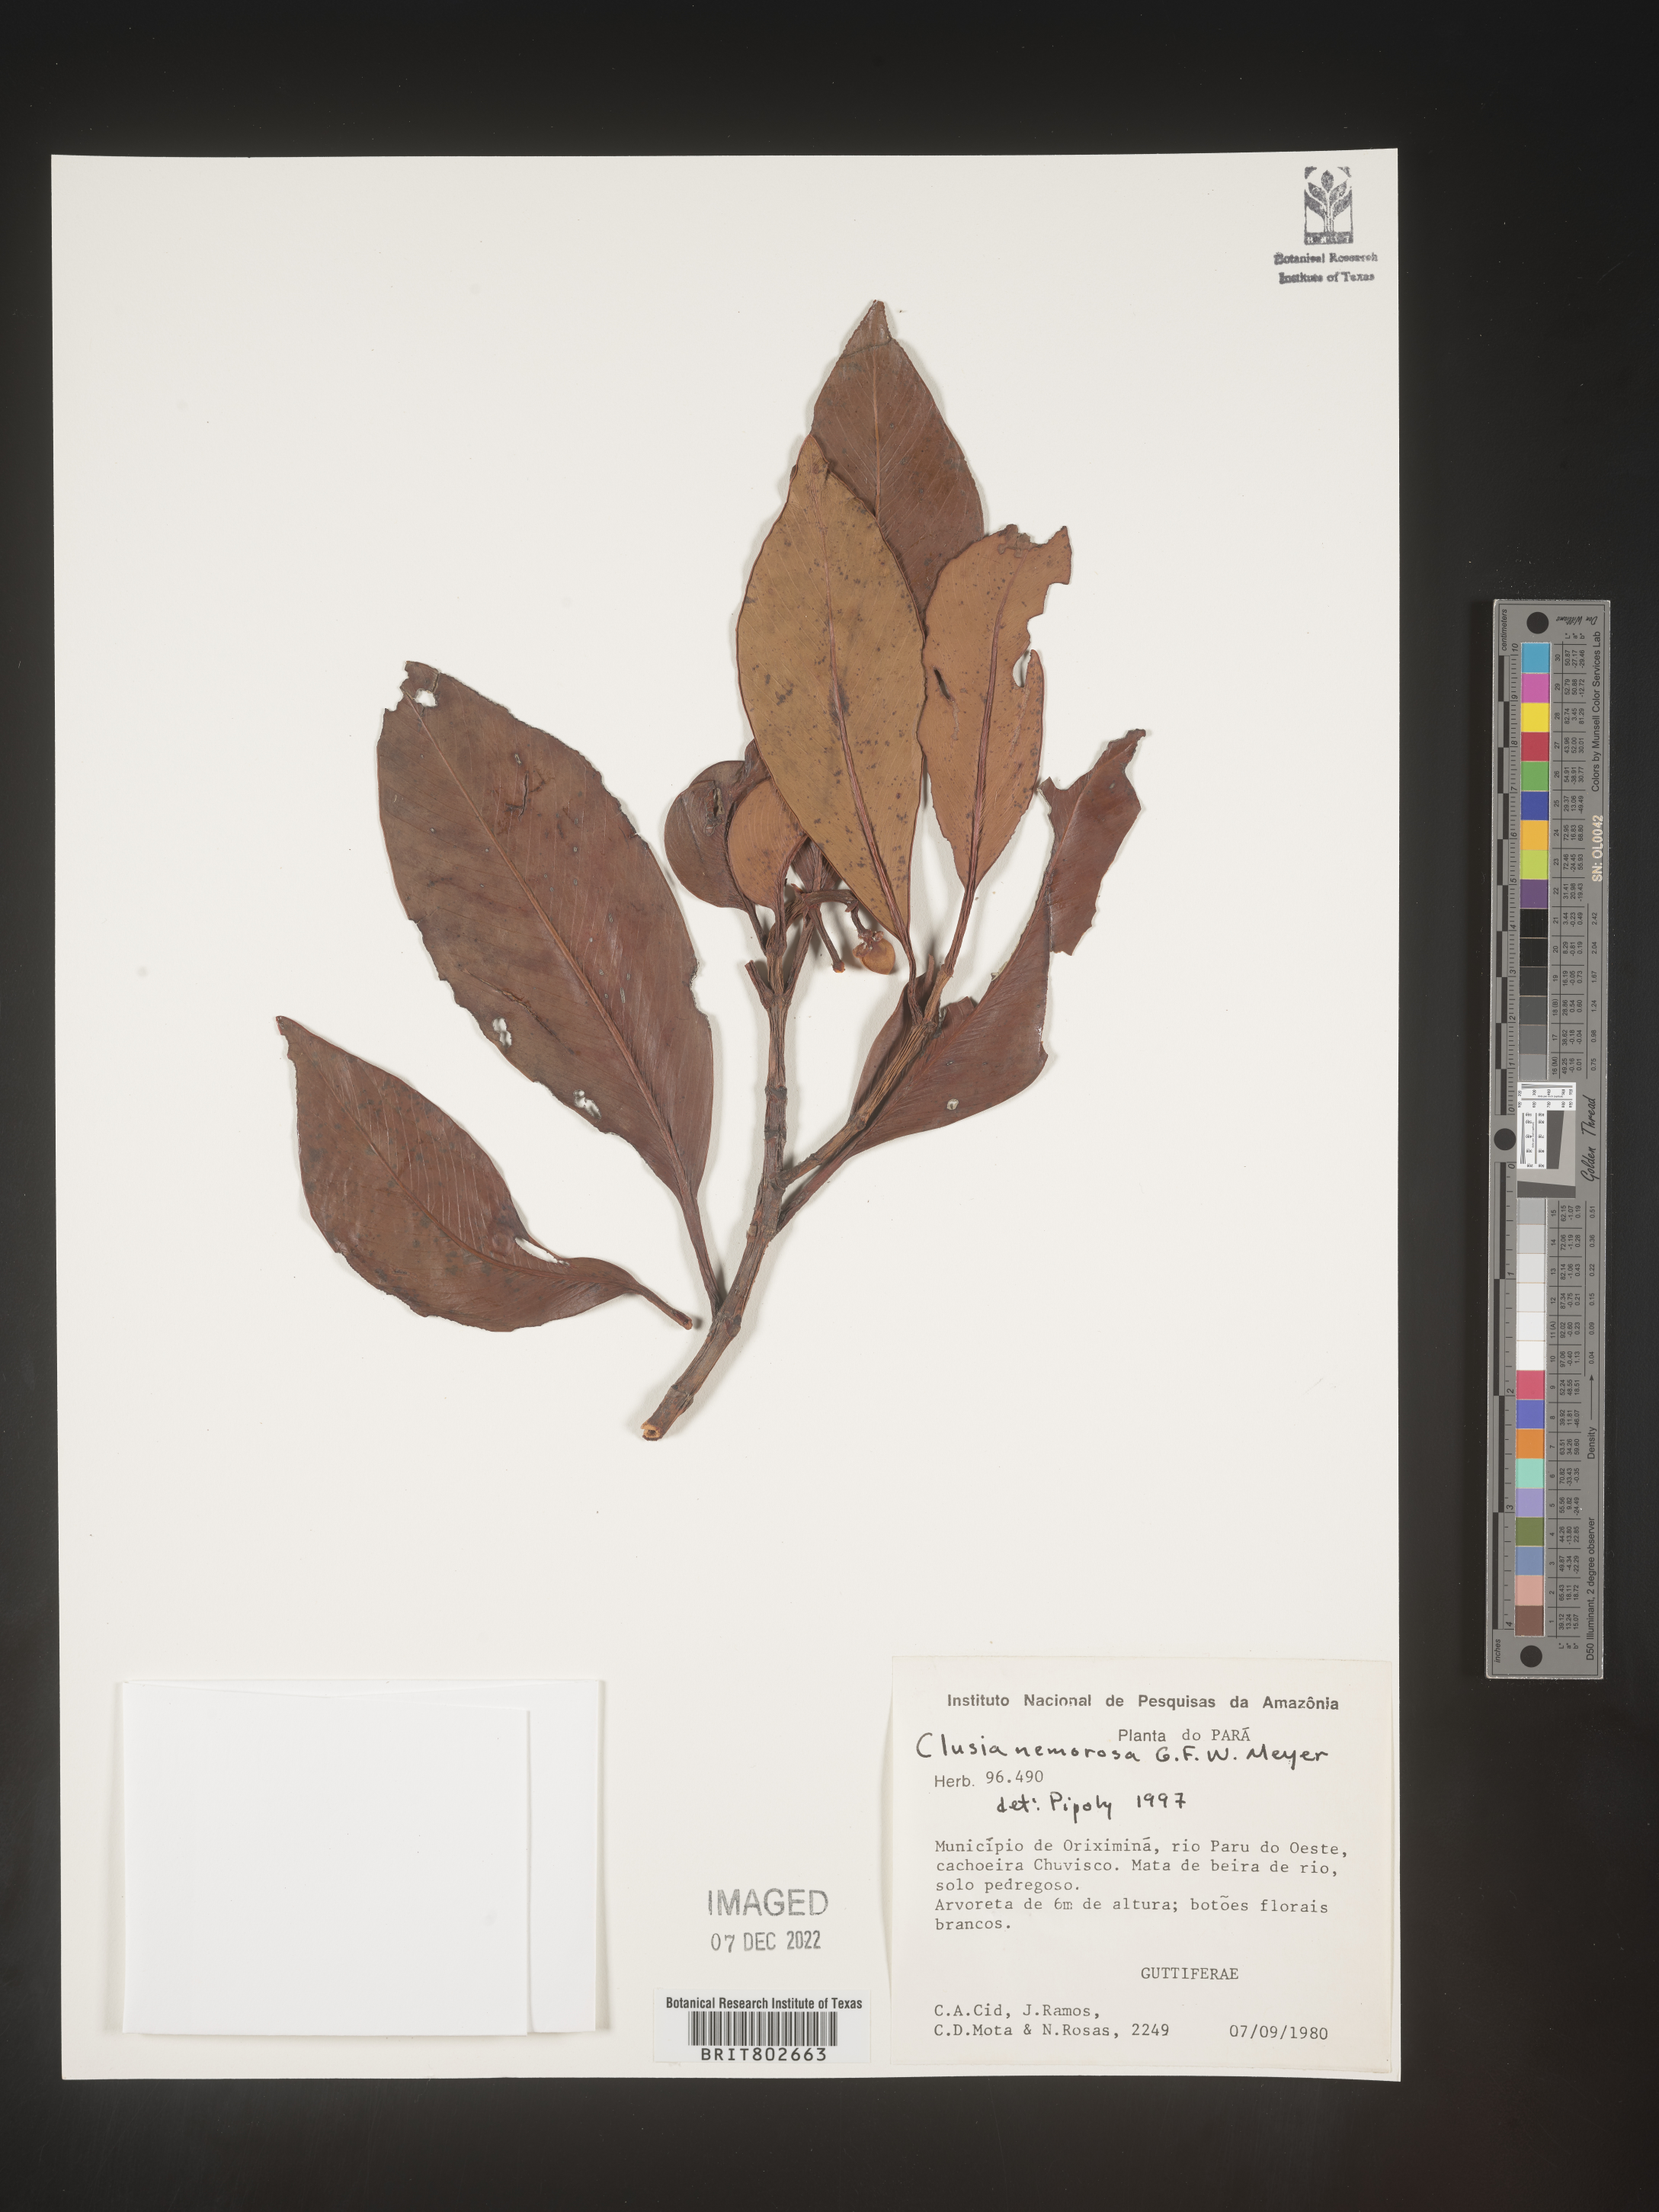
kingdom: Plantae
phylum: Tracheophyta
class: Magnoliopsida
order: Malpighiales
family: Clusiaceae
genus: Clusia
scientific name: Clusia nemorosa
